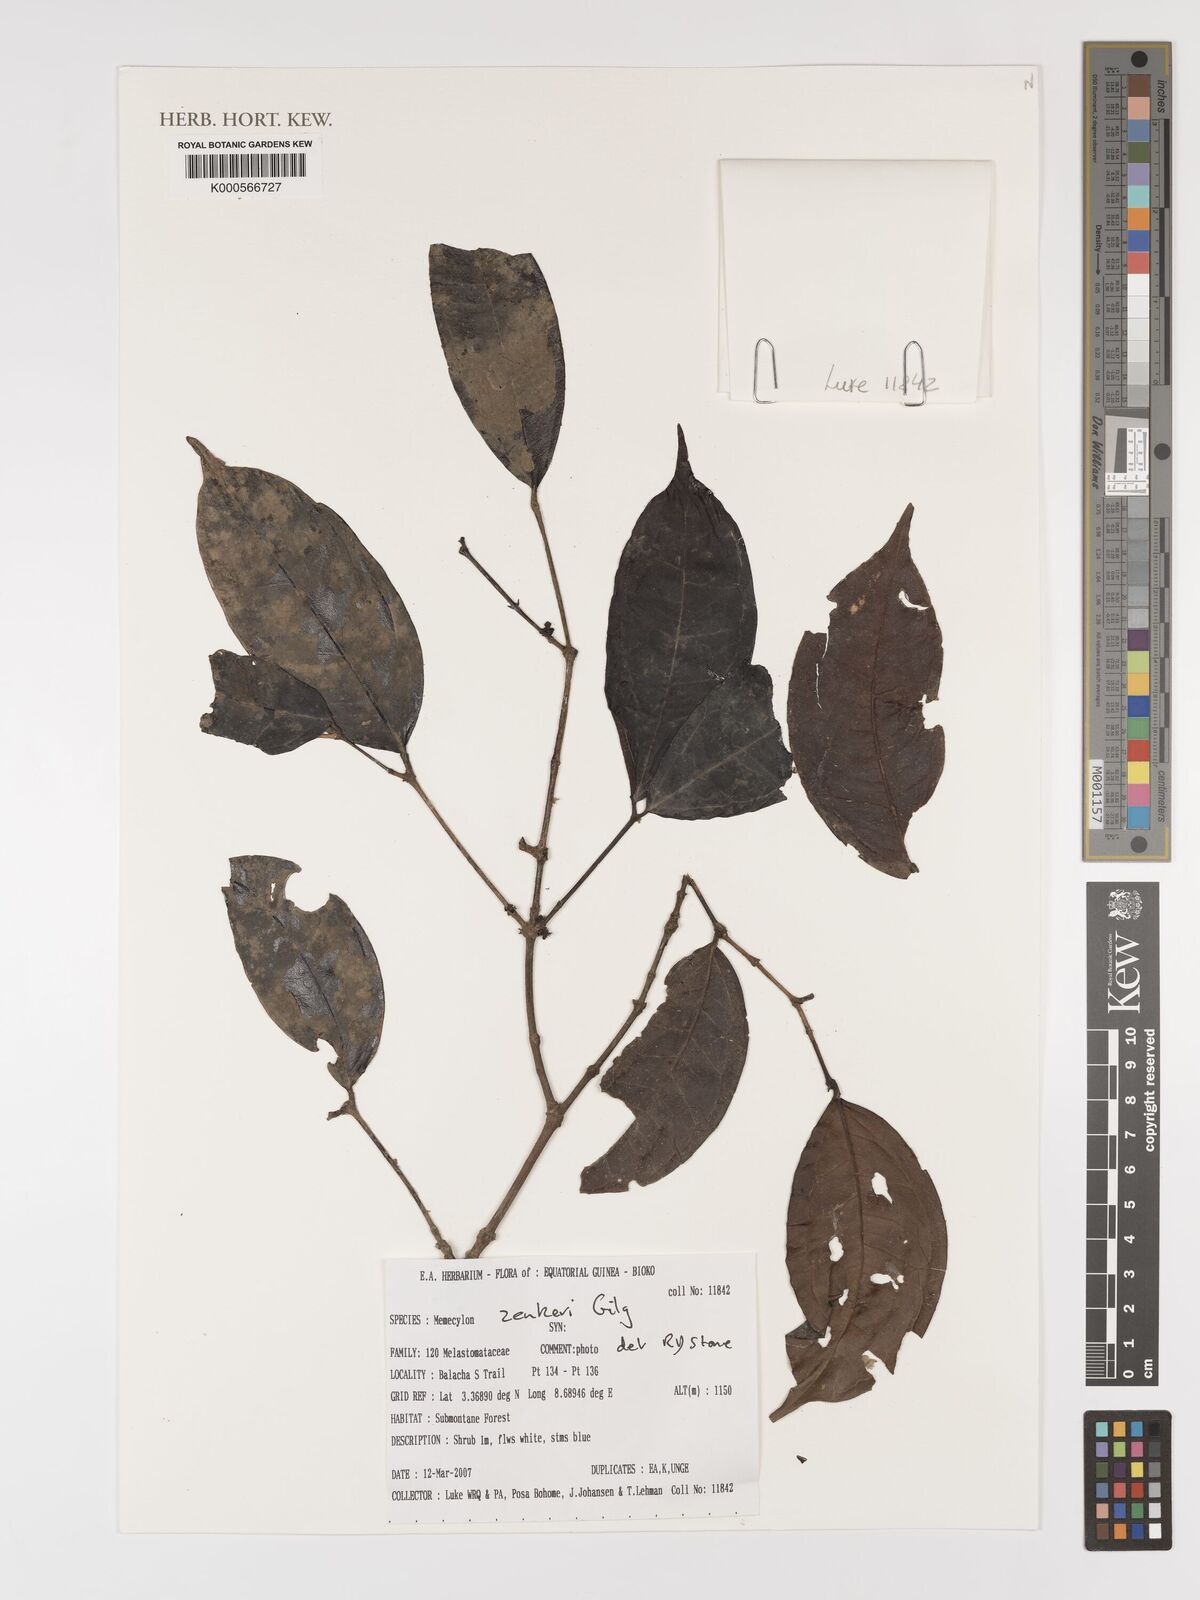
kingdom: Plantae
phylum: Tracheophyta
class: Magnoliopsida
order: Myrtales
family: Melastomataceae
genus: Memecylon
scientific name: Memecylon zenkeri
